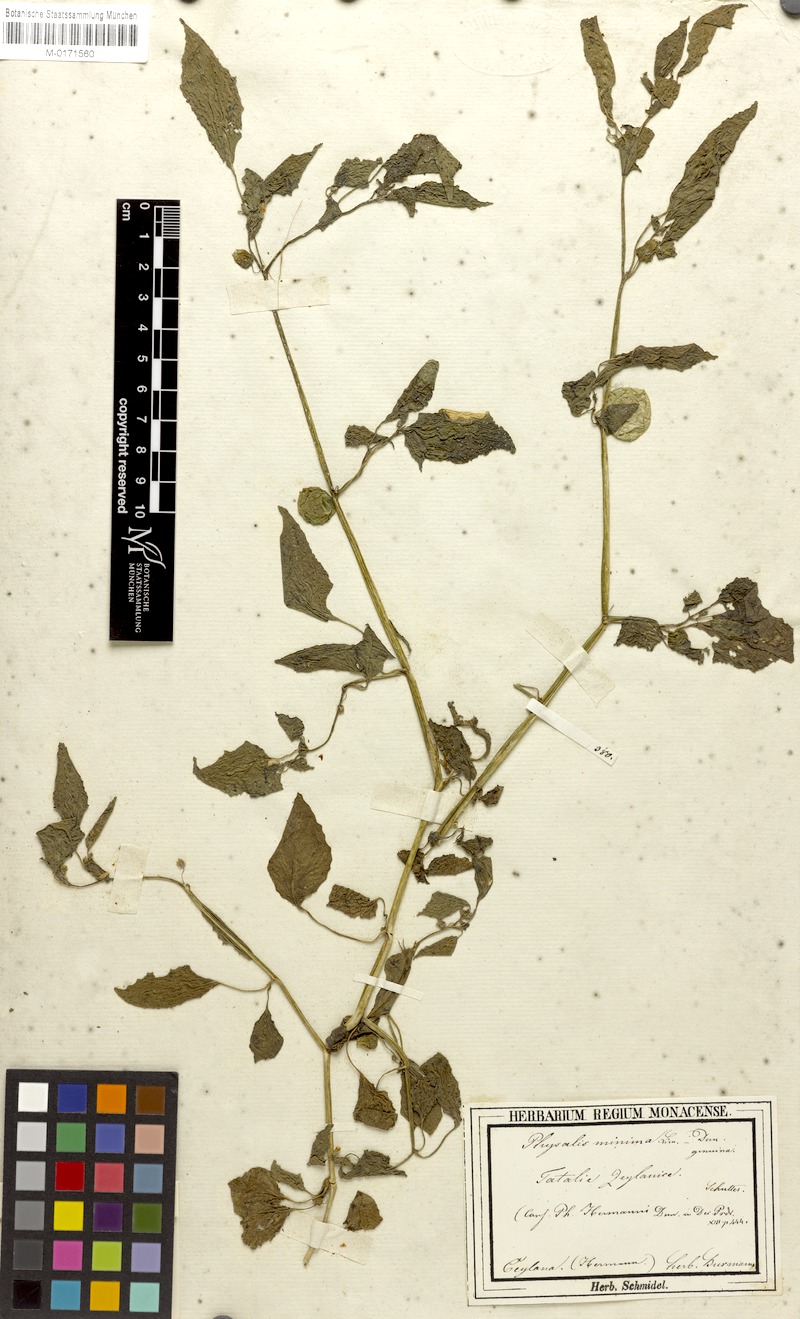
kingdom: Plantae
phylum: Tracheophyta
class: Magnoliopsida
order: Solanales
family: Solanaceae
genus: Physalis
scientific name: Physalis angulata
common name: Angular winter-cherry
